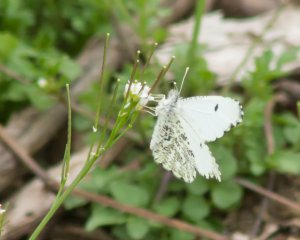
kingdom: Animalia
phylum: Arthropoda
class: Insecta
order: Lepidoptera
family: Pieridae
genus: Anthocharis
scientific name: Anthocharis midea
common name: Falcate Orangetip
